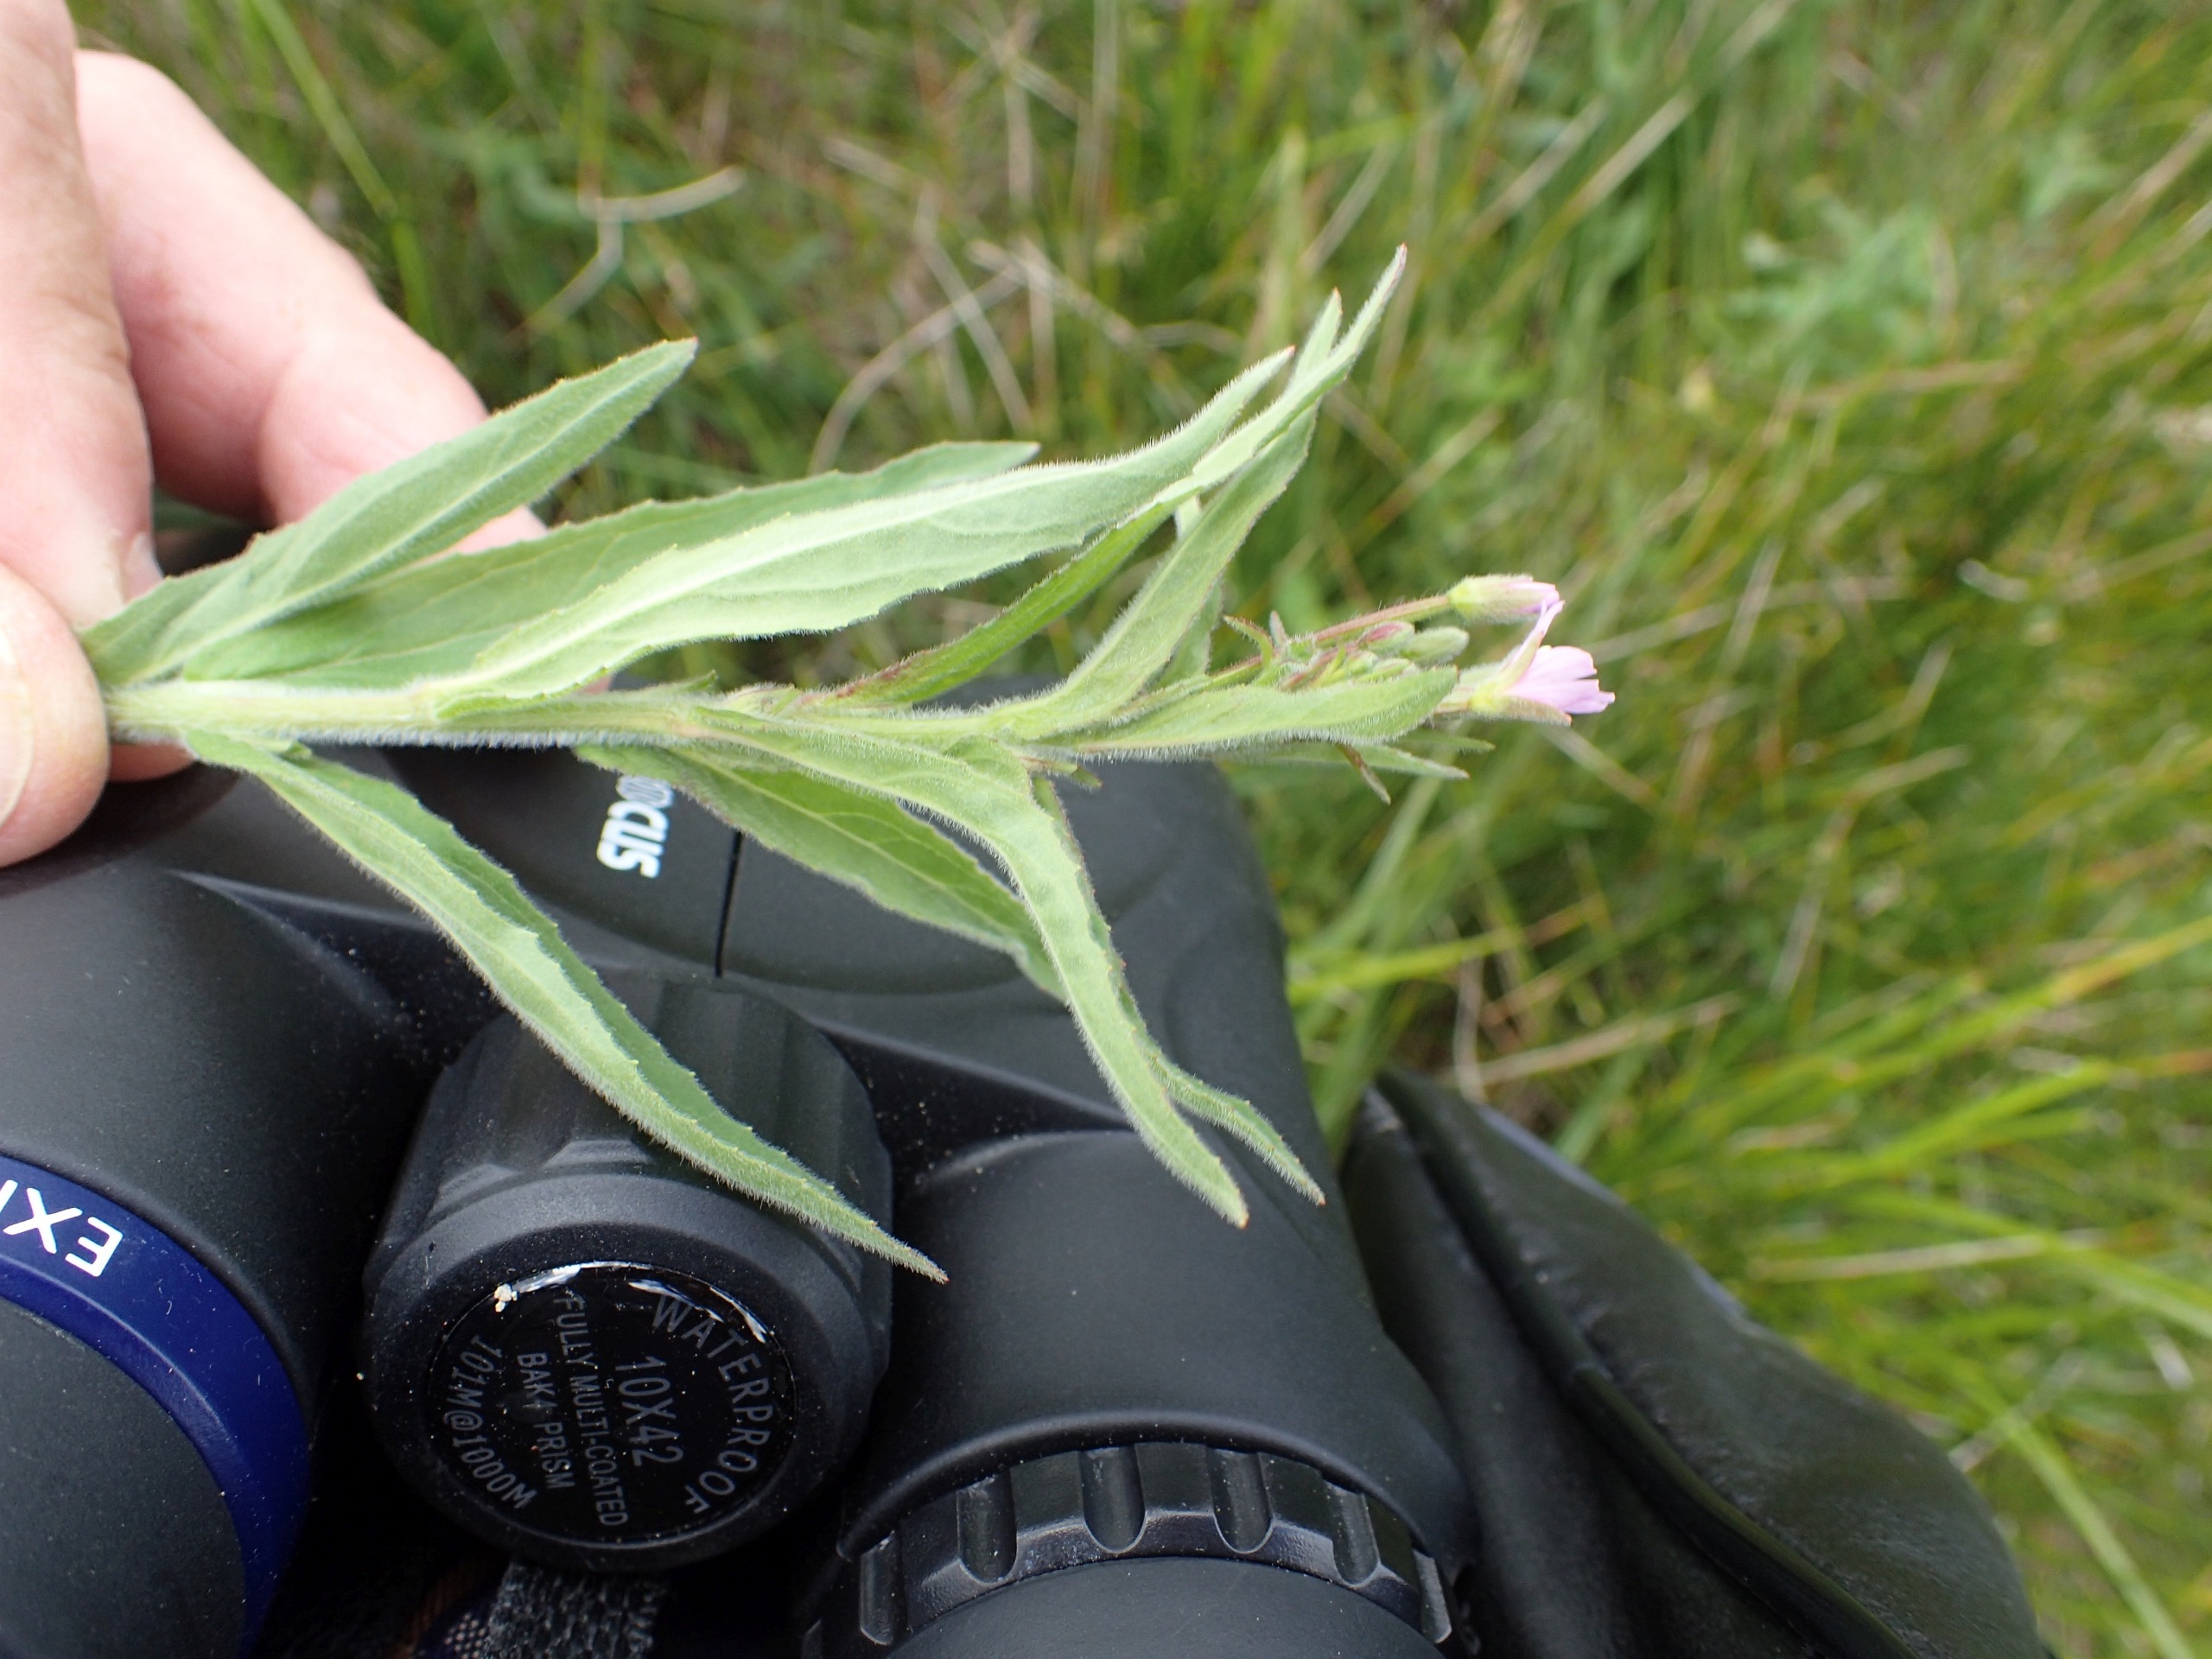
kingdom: Plantae
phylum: Tracheophyta
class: Magnoliopsida
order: Myrtales
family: Onagraceae
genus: Epilobium
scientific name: Epilobium parviflorum
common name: Dunet dueurt
